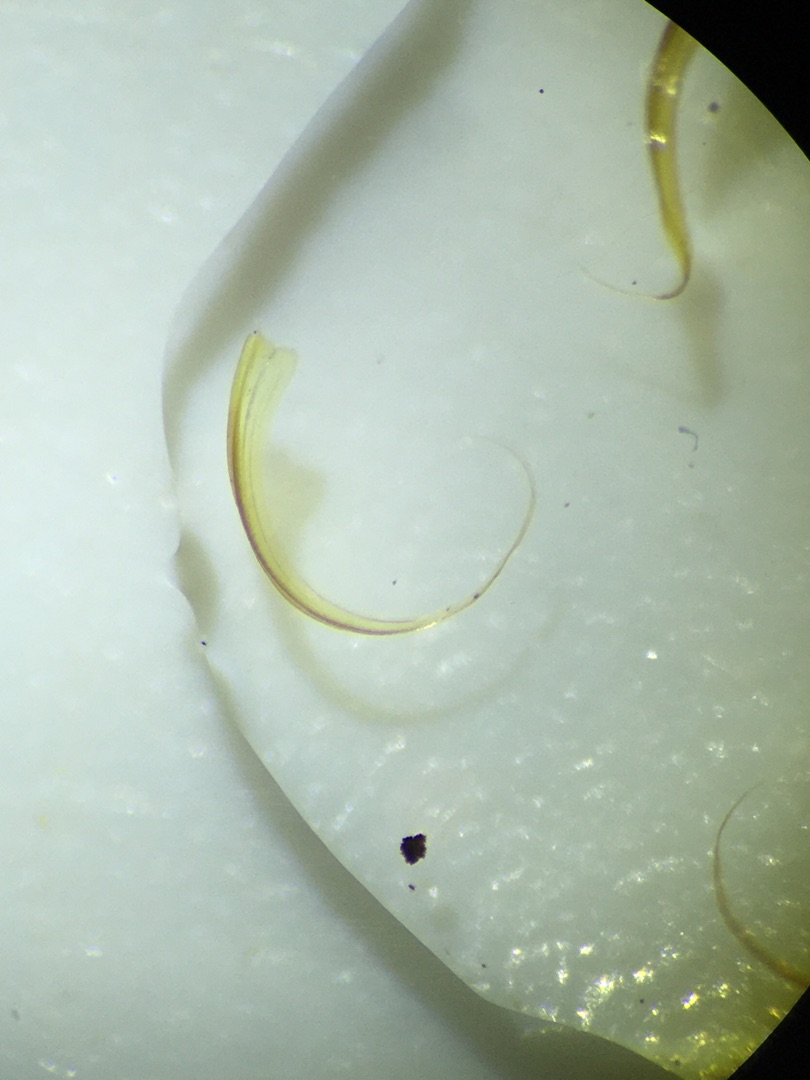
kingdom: Plantae
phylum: Bryophyta
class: Bryopsida
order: Hypnales
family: Scorpidiaceae
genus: Sanionia
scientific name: Sanionia uncinata
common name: Stribet krogblad
